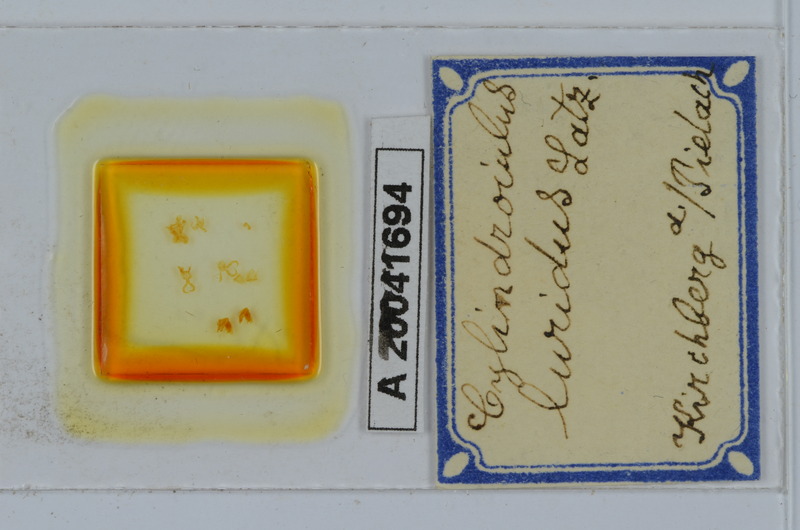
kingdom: Animalia
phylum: Arthropoda
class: Diplopoda
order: Julida
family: Julidae
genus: Cylindroiulus
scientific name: Cylindroiulus luridus
